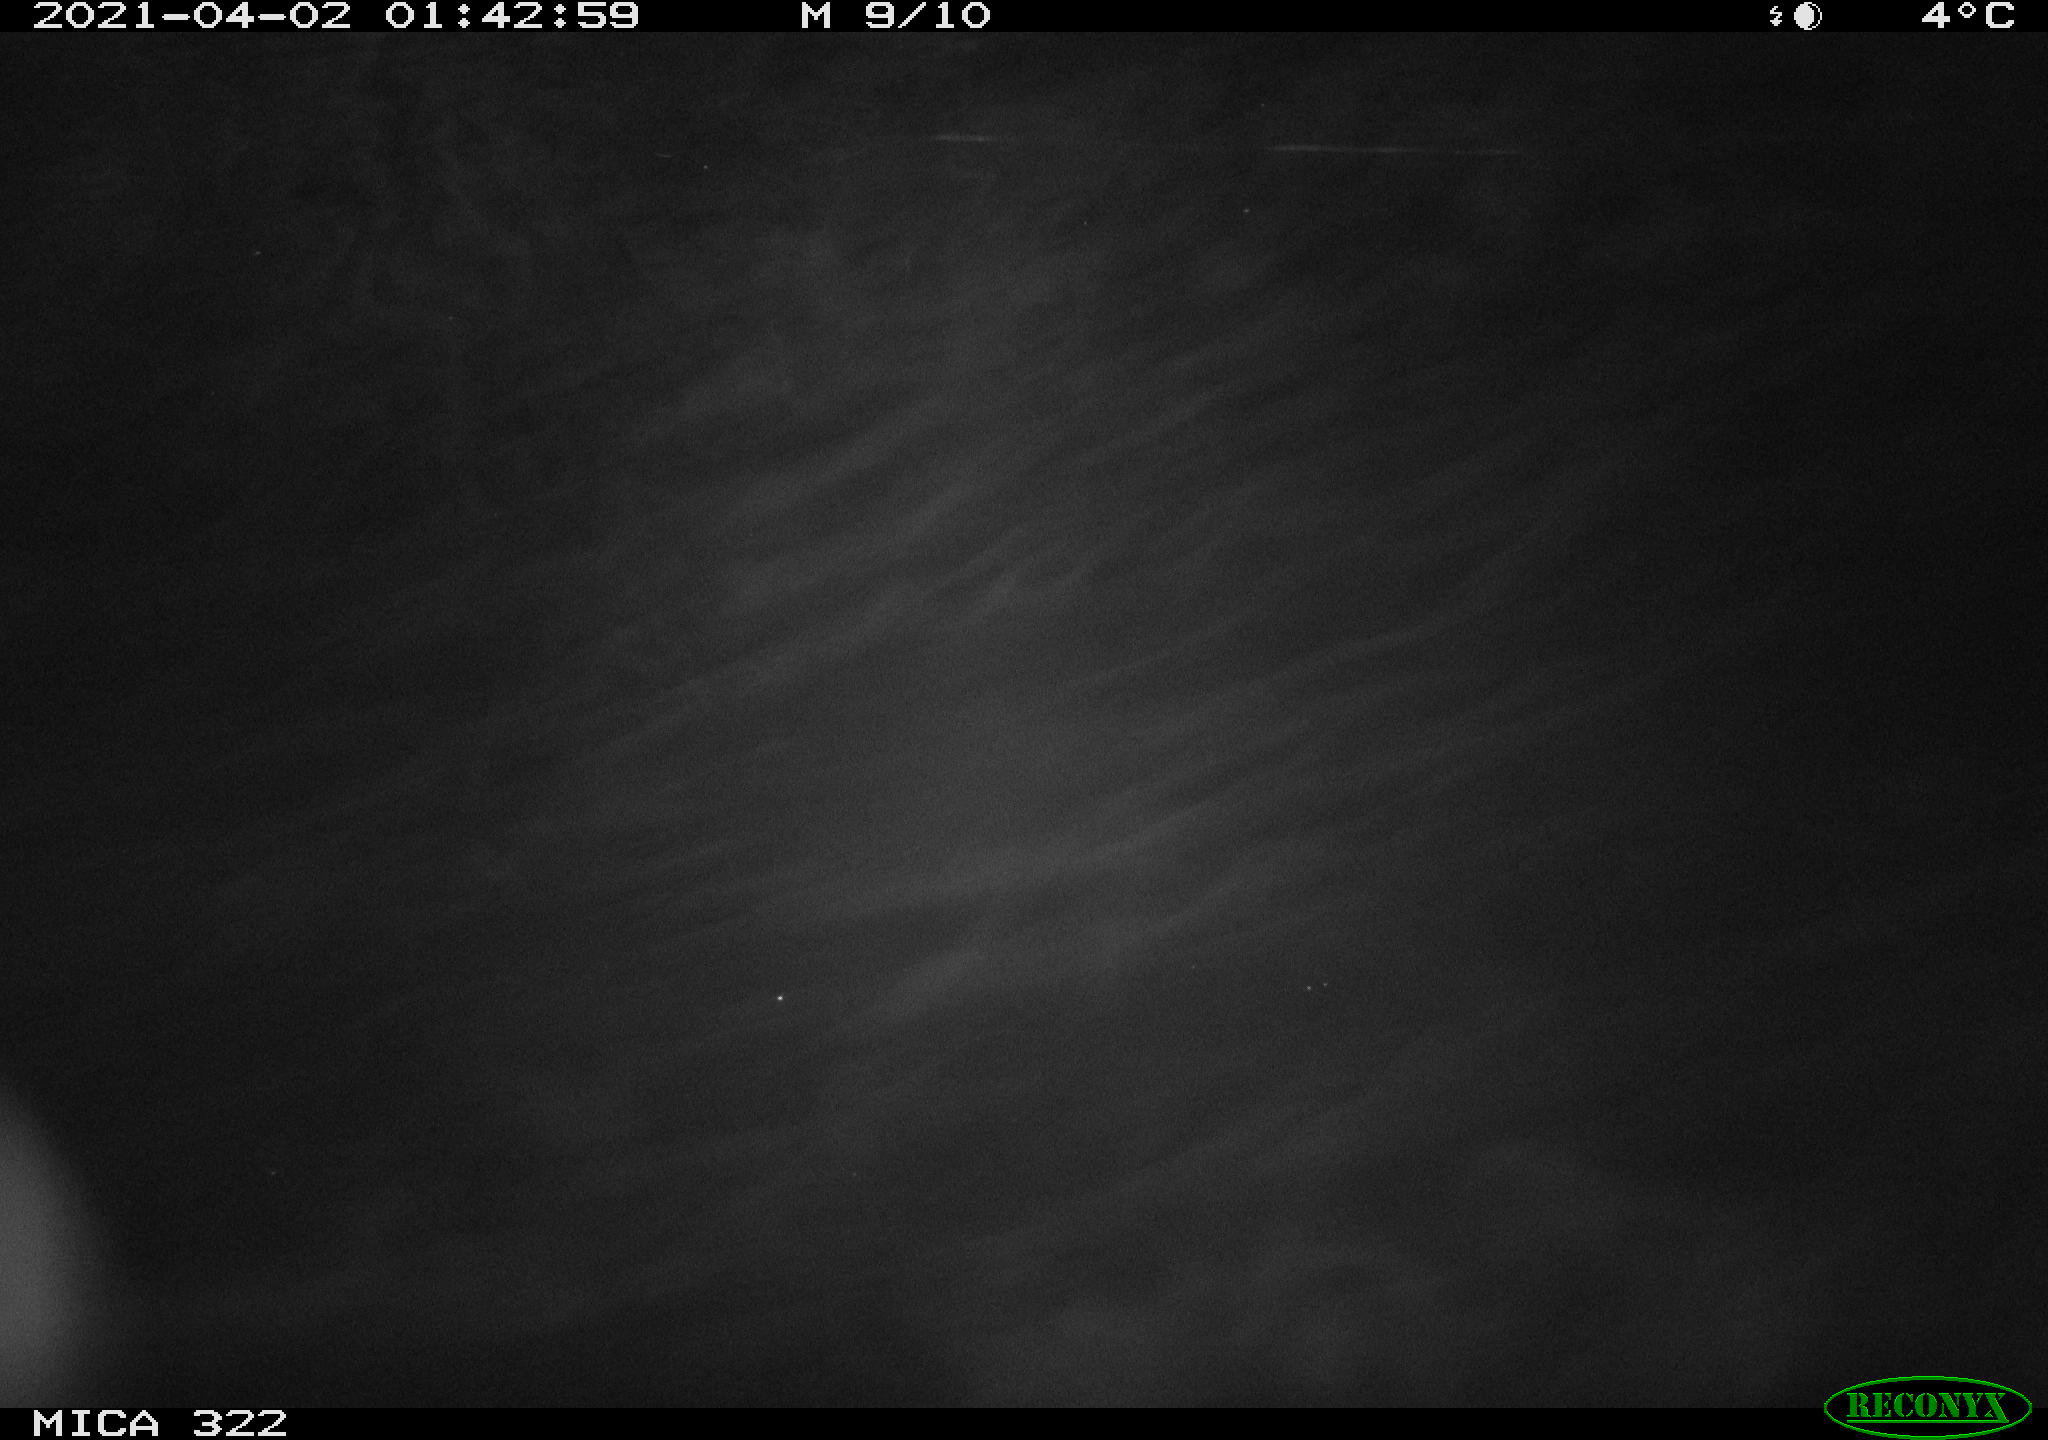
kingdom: Animalia
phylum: Chordata
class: Aves
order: Anseriformes
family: Anatidae
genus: Anas
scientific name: Anas platyrhynchos
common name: Mallard
